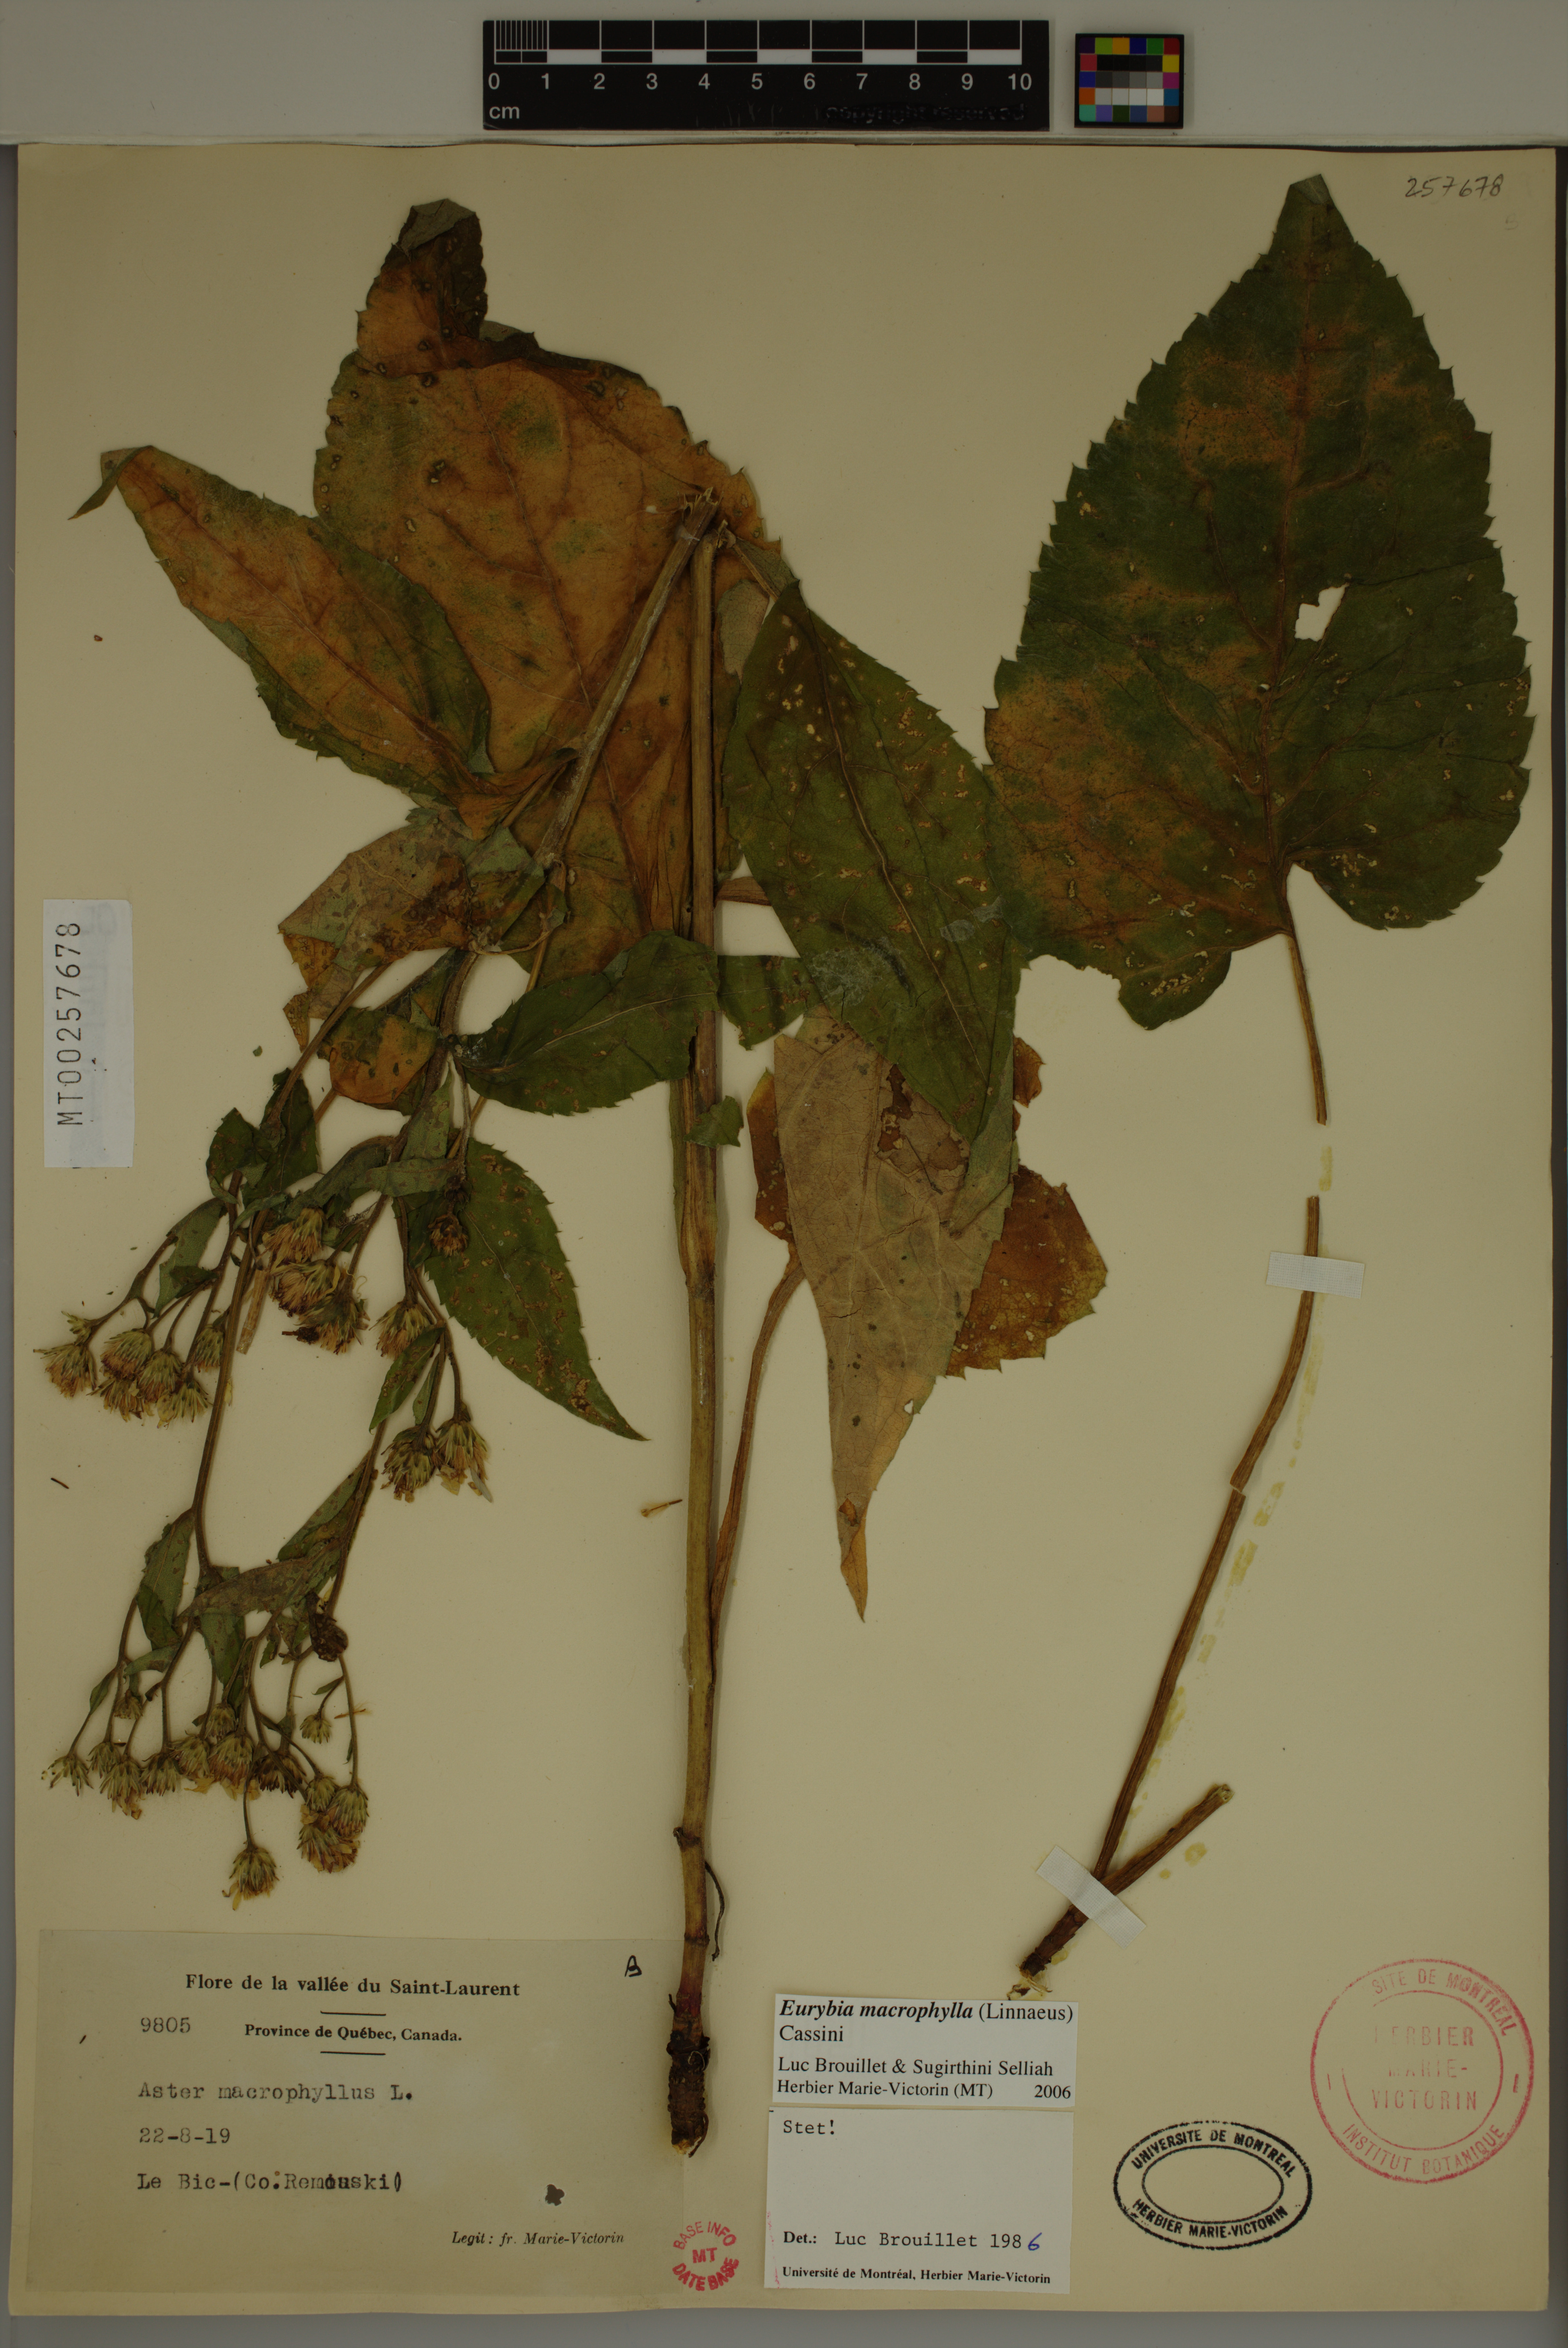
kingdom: Plantae
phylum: Tracheophyta
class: Magnoliopsida
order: Asterales
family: Asteraceae
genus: Eurybia
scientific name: Eurybia macrophylla
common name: Big-leaved aster
